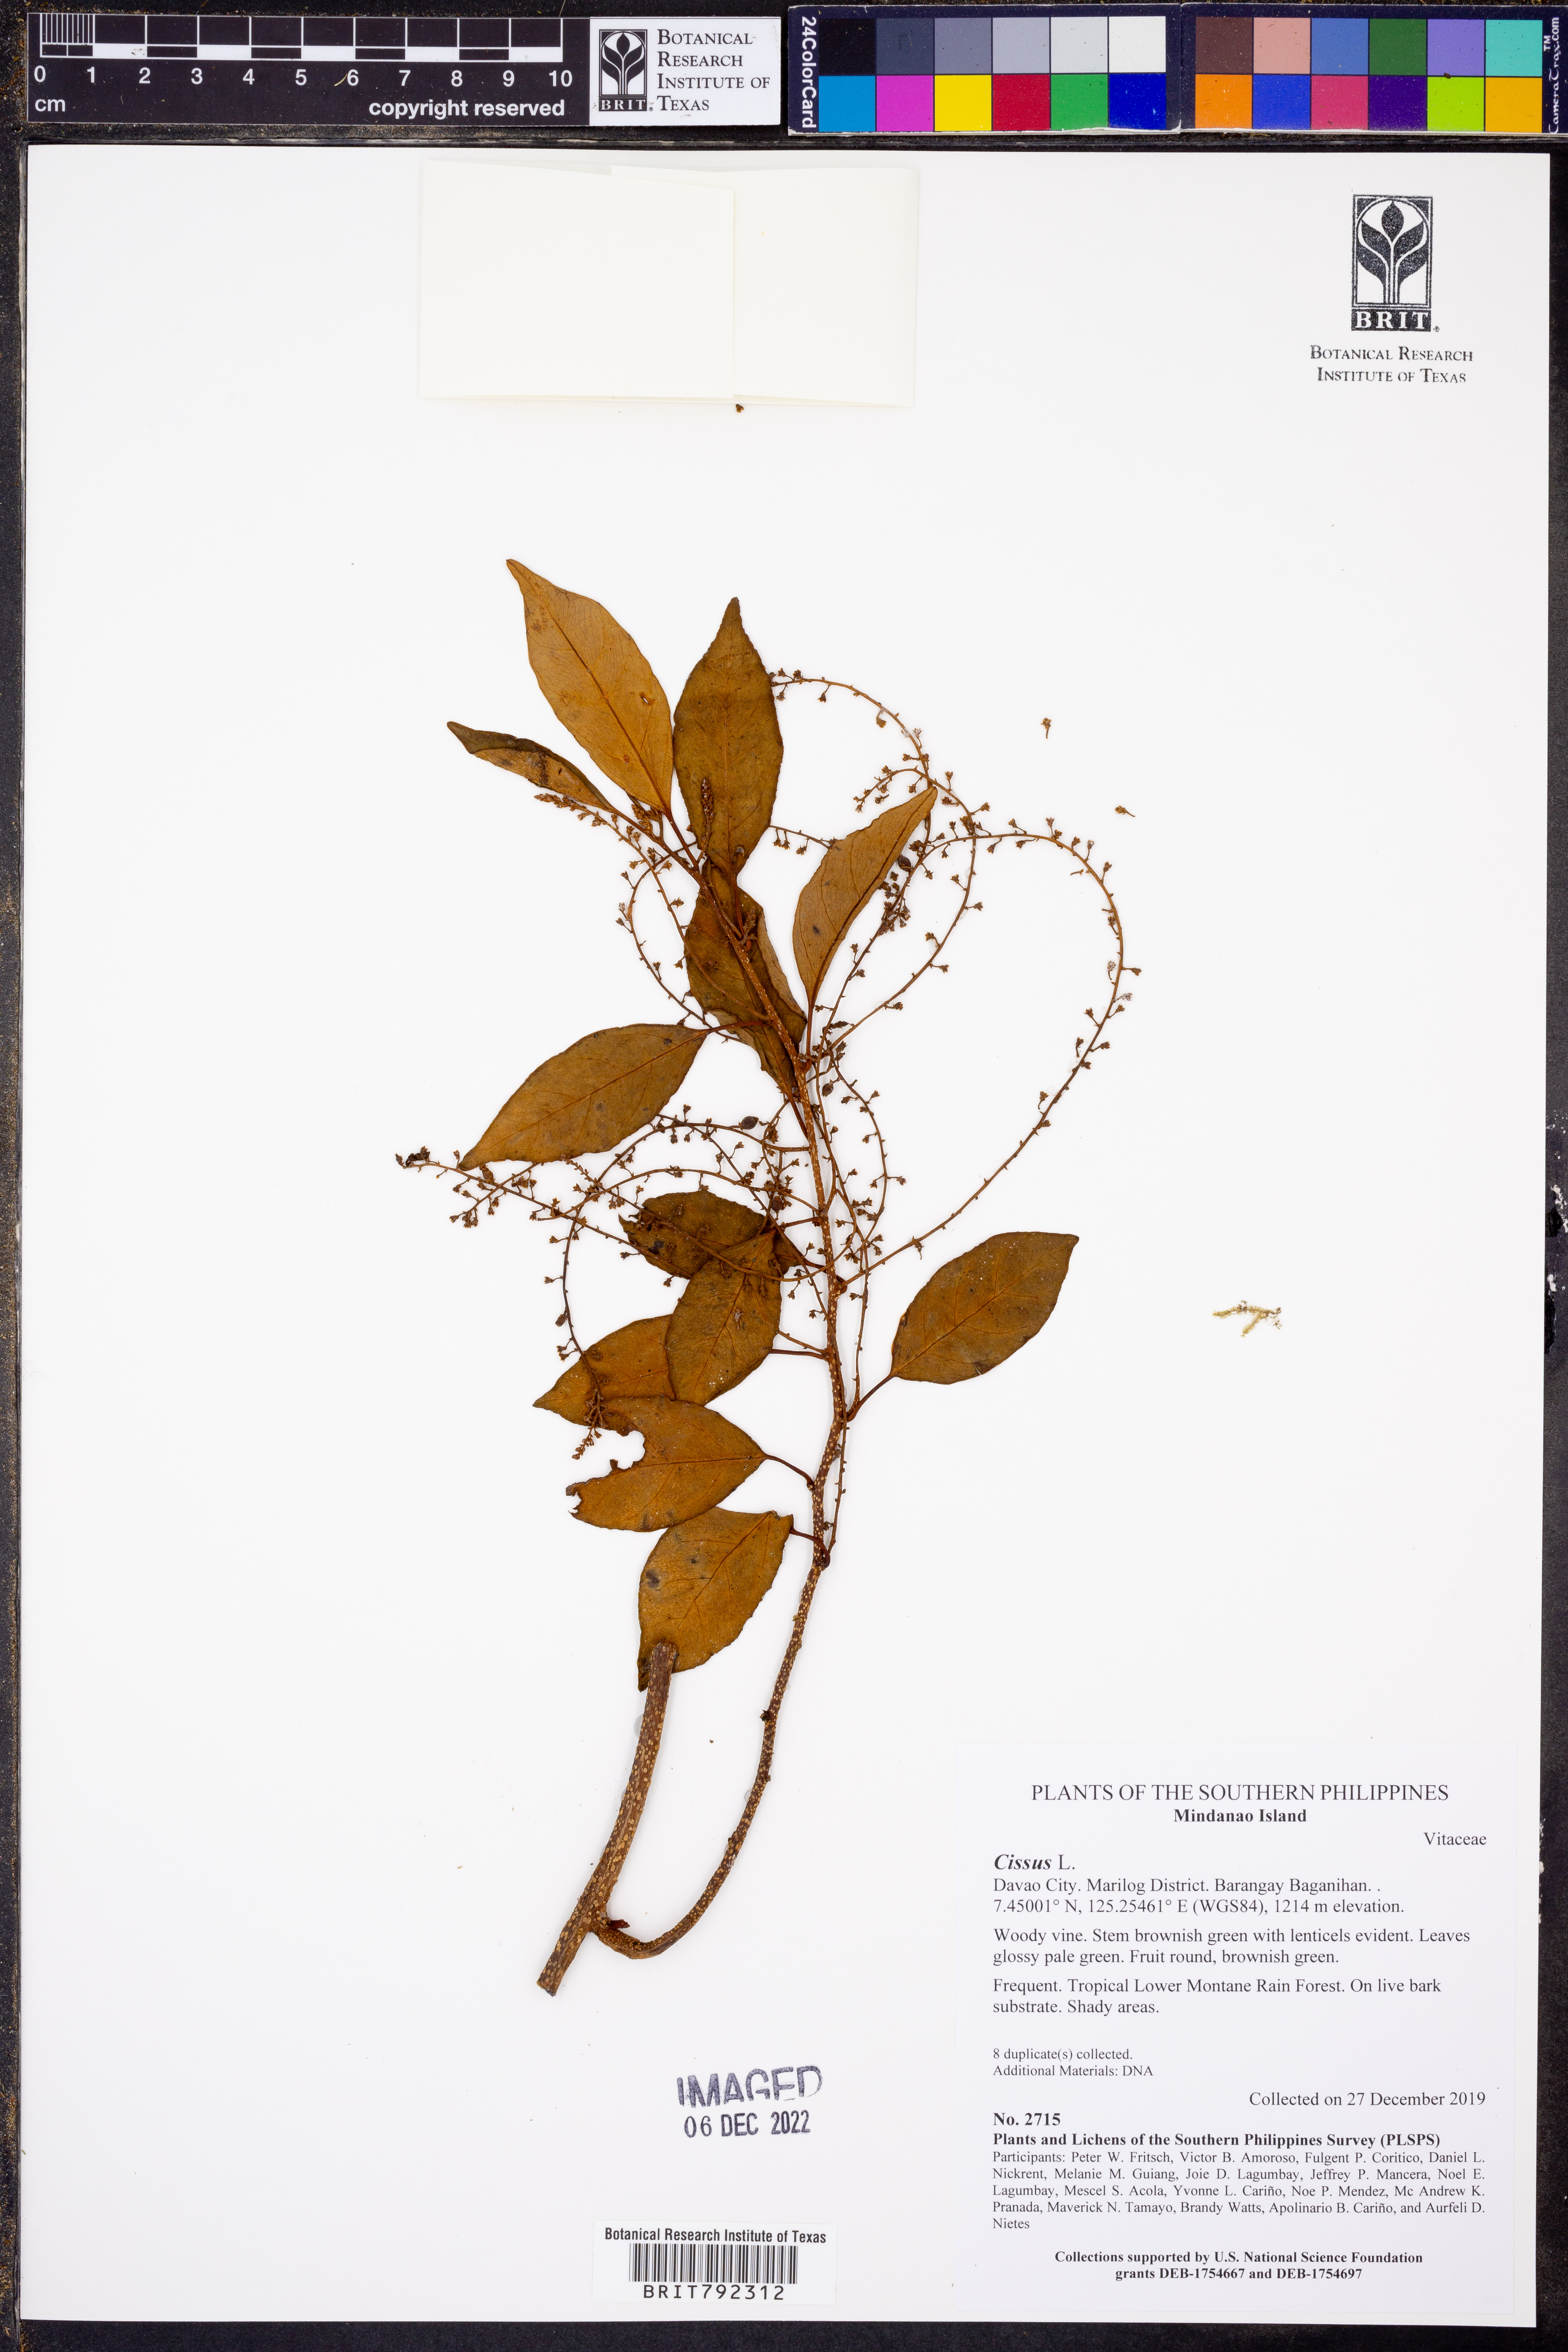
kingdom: Plantae
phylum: Tracheophyta
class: Magnoliopsida
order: Vitales
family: Vitaceae
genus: Cissus
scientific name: Cissus
